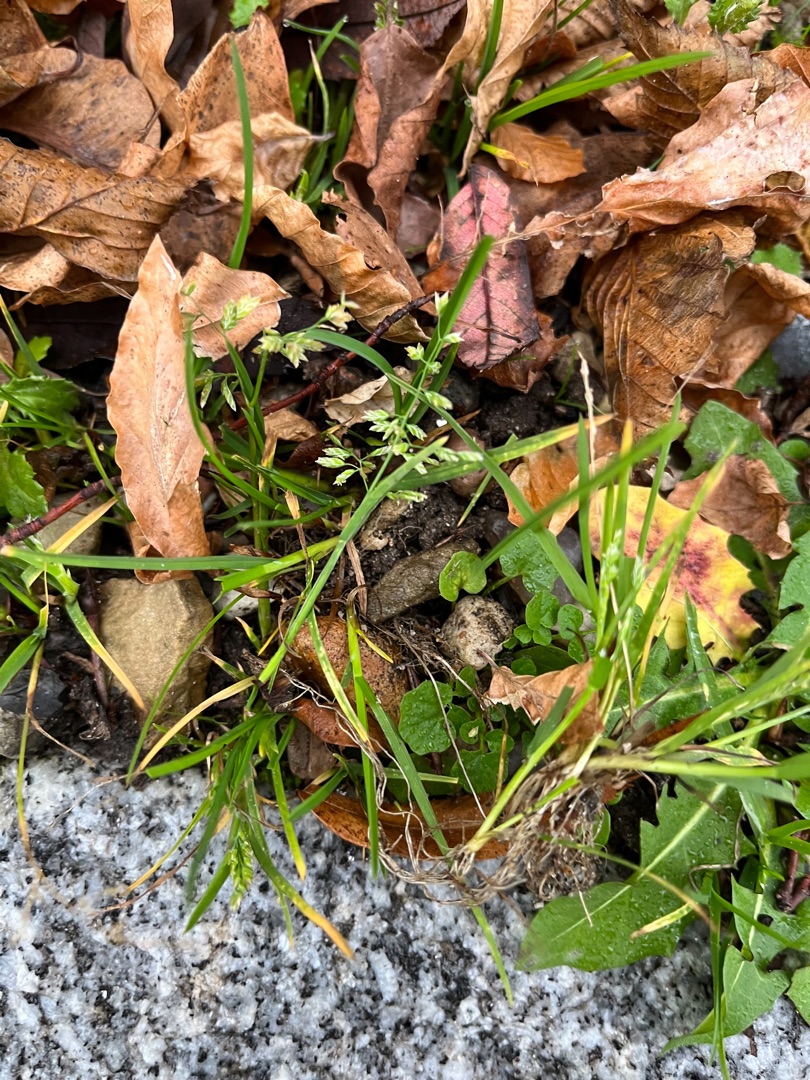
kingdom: Plantae
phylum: Tracheophyta
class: Liliopsida
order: Poales
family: Poaceae
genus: Poa
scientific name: Poa annua
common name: Enårig rapgræs
